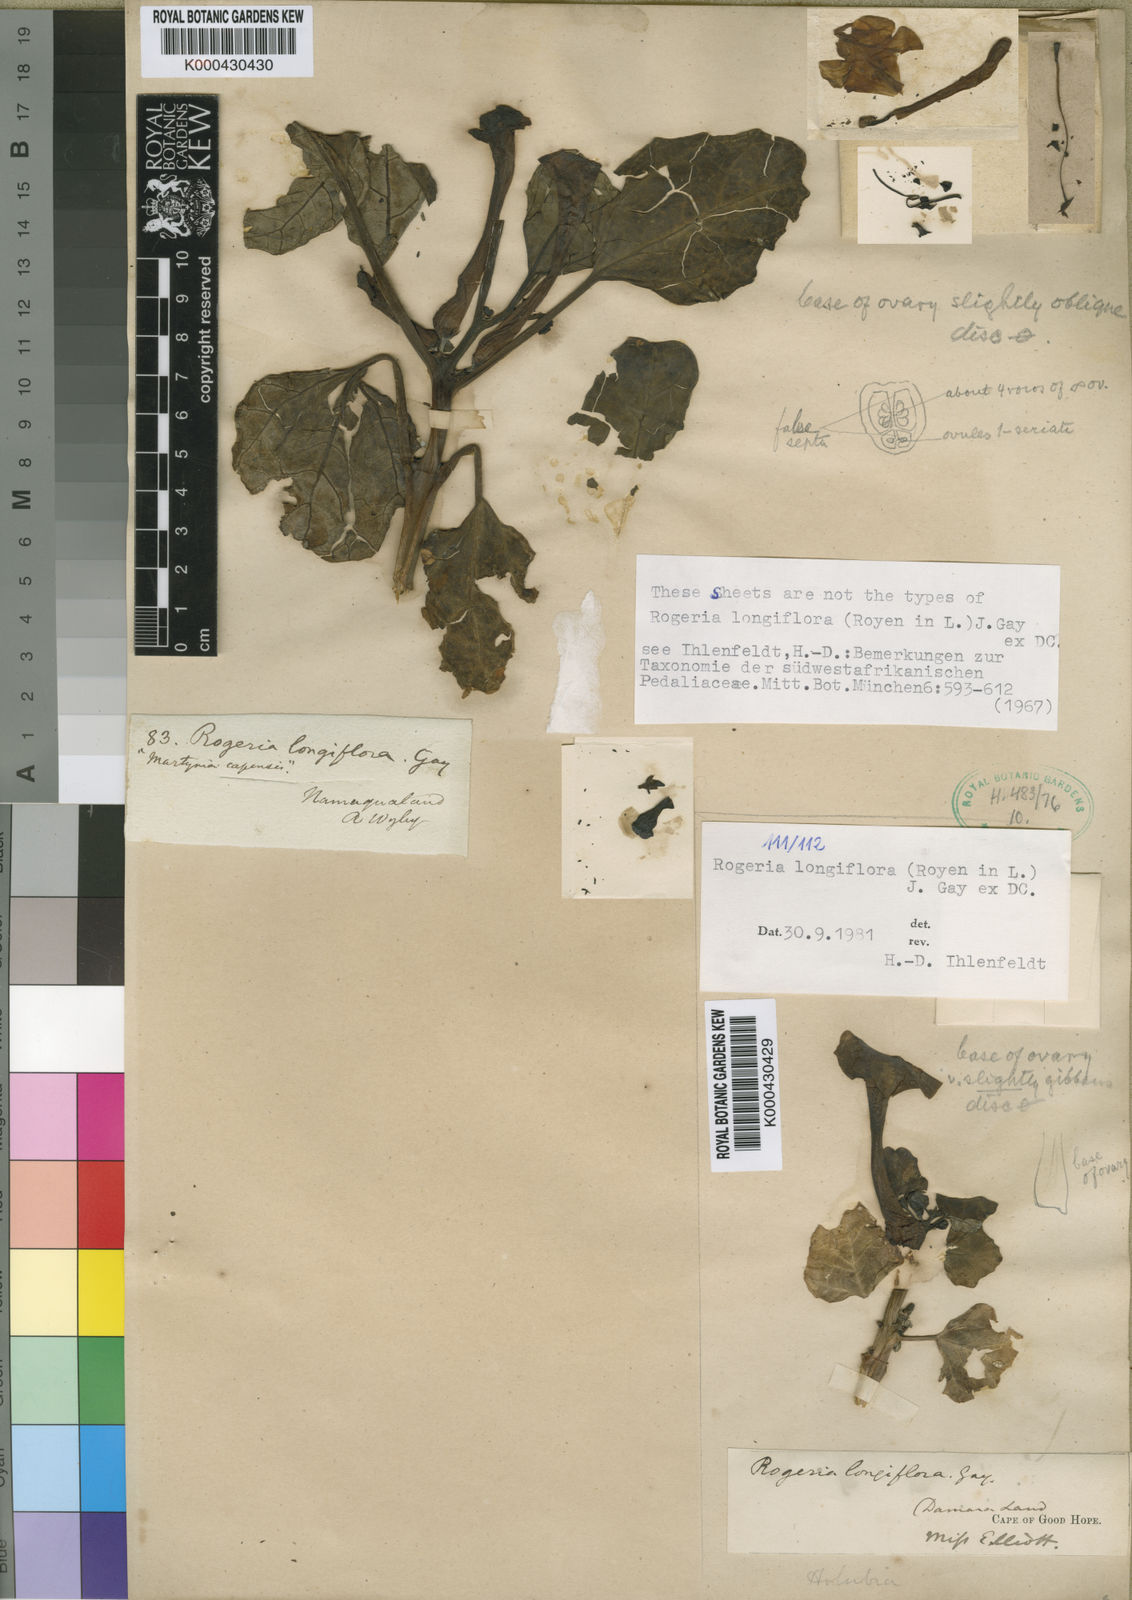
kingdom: Plantae
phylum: Tracheophyta
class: Magnoliopsida
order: Lamiales
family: Pedaliaceae
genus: Rogeria
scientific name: Rogeria longiflora
